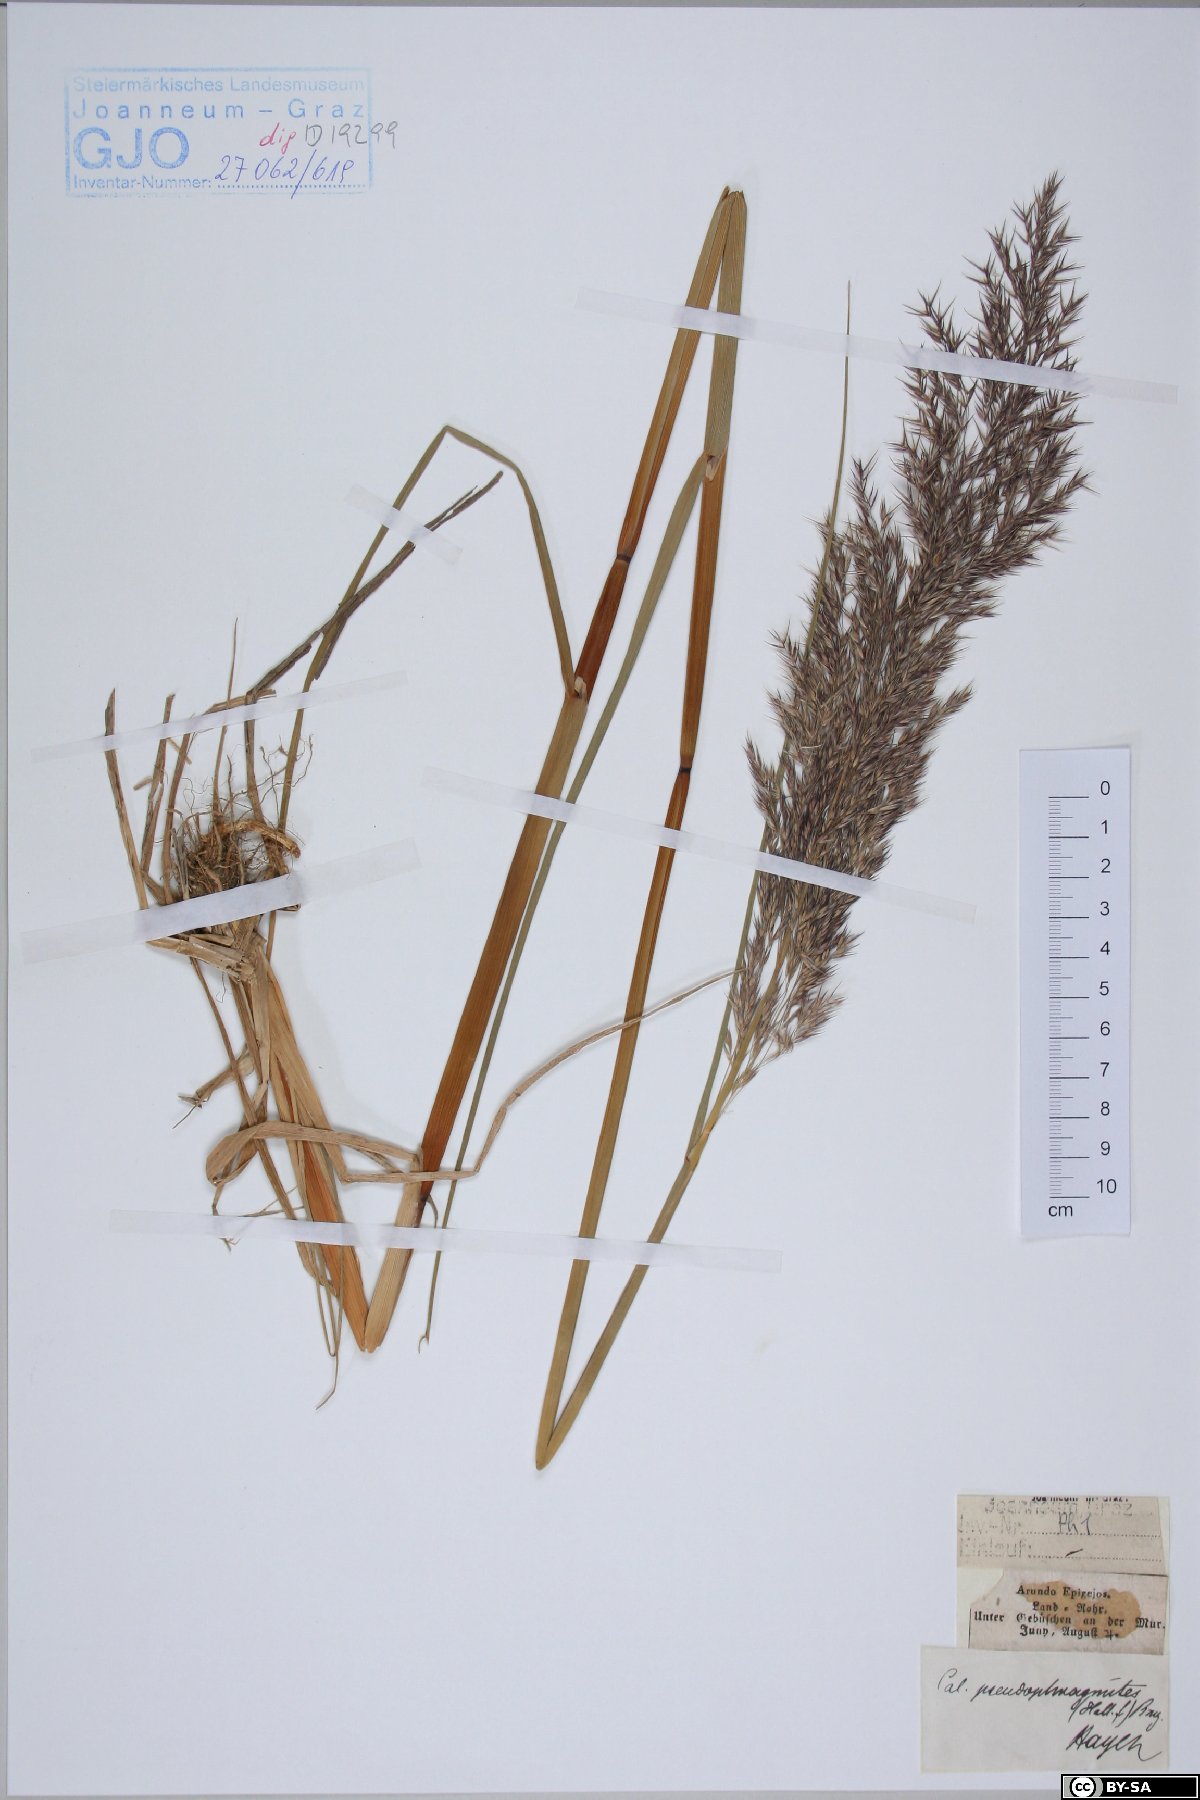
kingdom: Plantae
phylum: Tracheophyta
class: Liliopsida
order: Poales
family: Poaceae
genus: Calamagrostis
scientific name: Calamagrostis pseudophragmites
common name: Coastal small-reed
